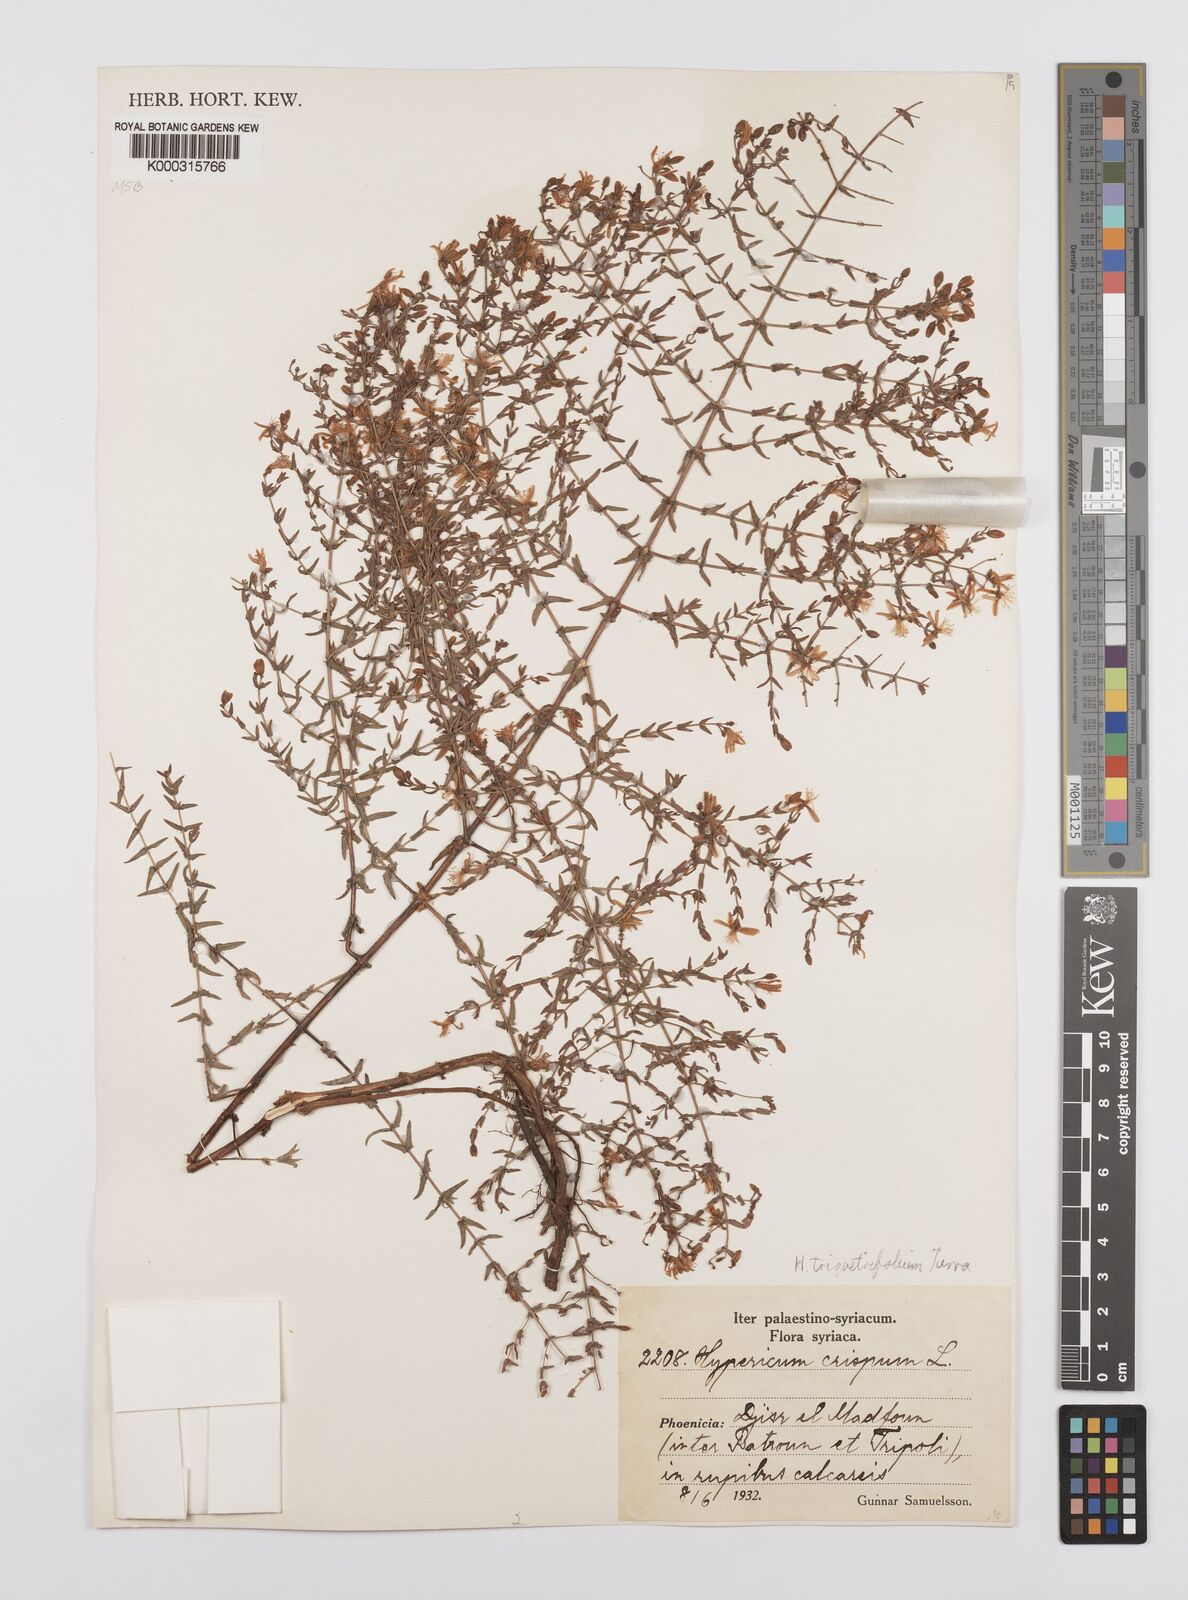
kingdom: Plantae
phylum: Tracheophyta
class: Magnoliopsida
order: Malpighiales
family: Hypericaceae
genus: Hypericum
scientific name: Hypericum triquetrifolium
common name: Tangled hypericum
